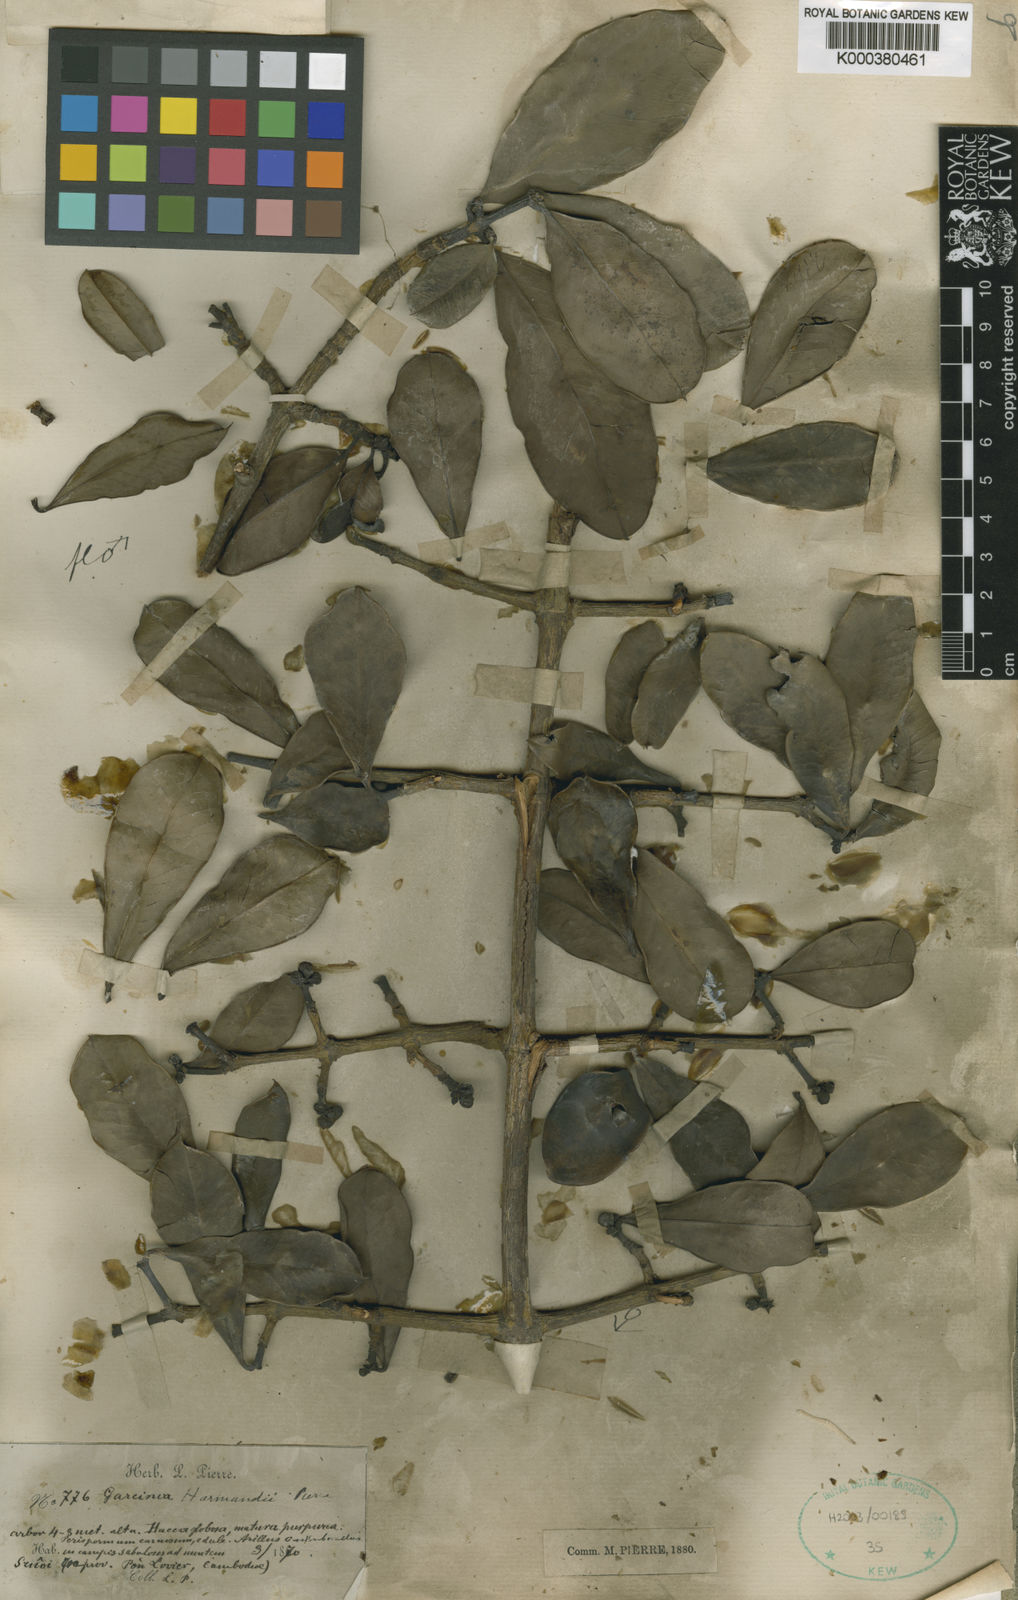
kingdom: Plantae
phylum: Tracheophyta
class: Magnoliopsida
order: Malpighiales
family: Clusiaceae
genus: Garcinia
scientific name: Garcinia harmandii
